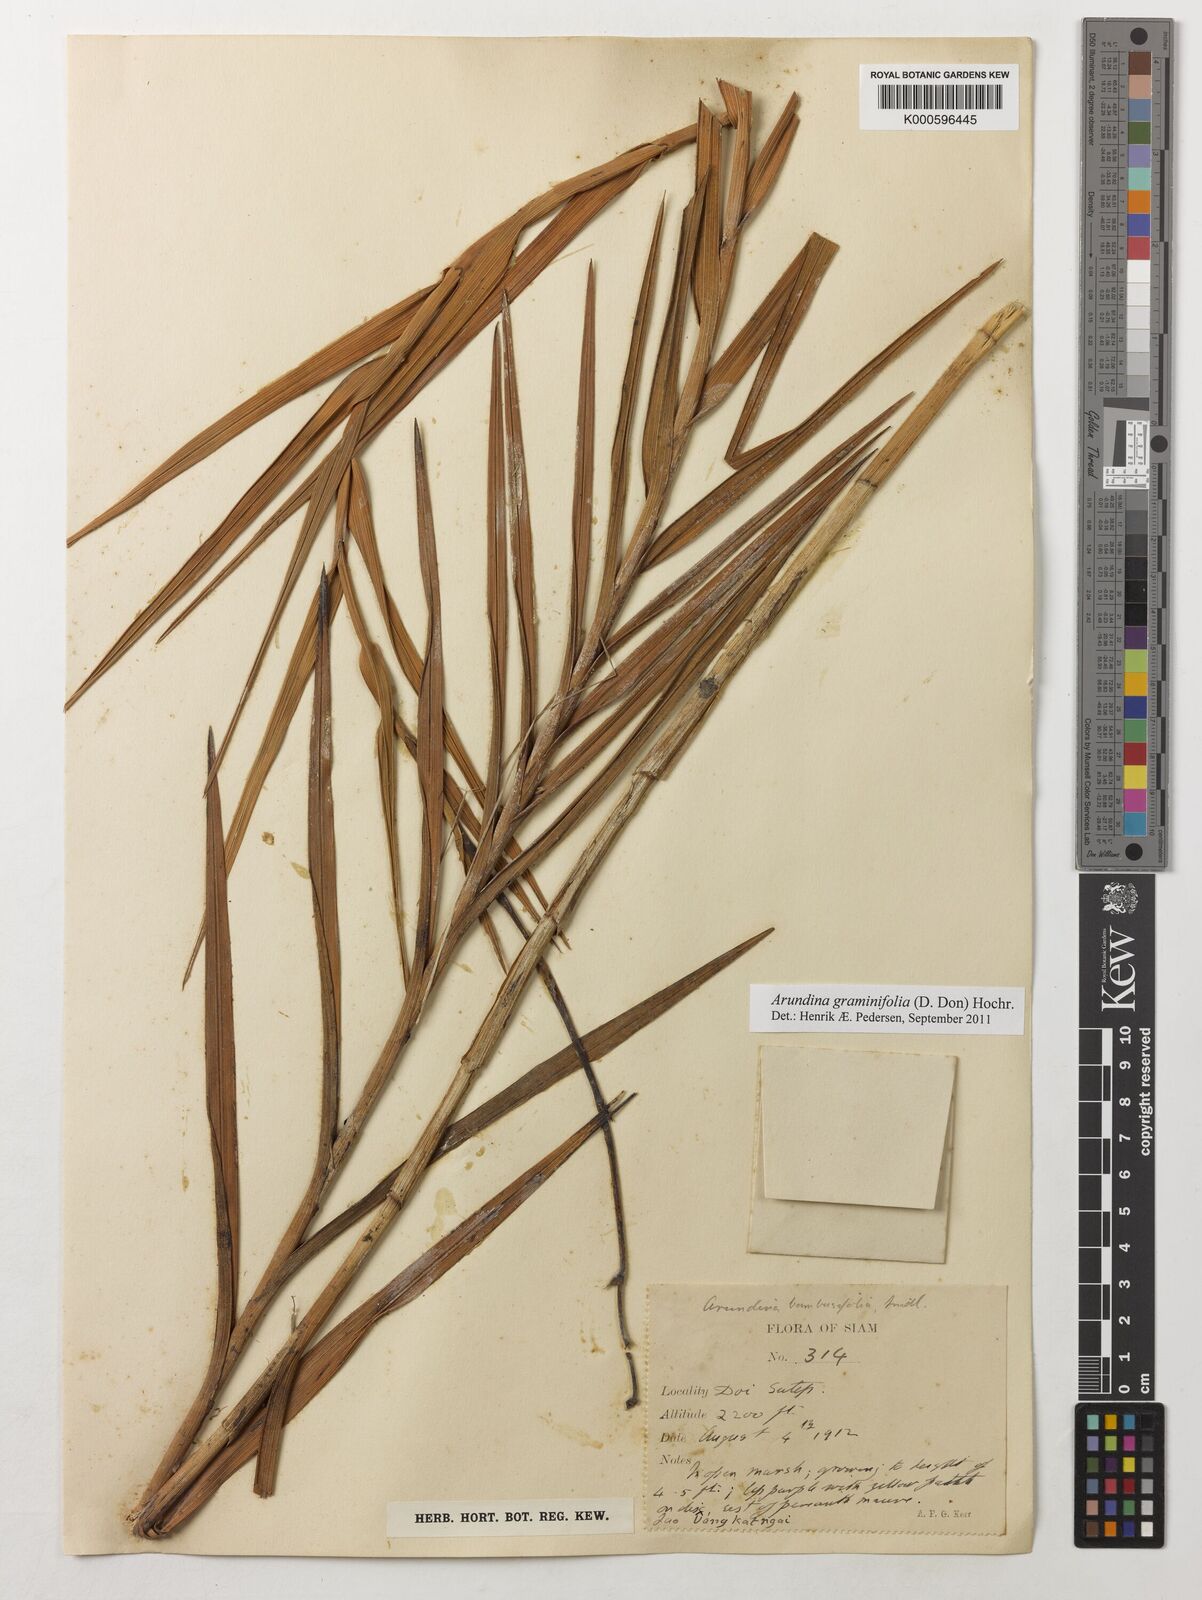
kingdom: Plantae
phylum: Tracheophyta
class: Liliopsida
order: Asparagales
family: Orchidaceae
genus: Arundina
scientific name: Arundina graminifolia
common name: Bamboo orchid
